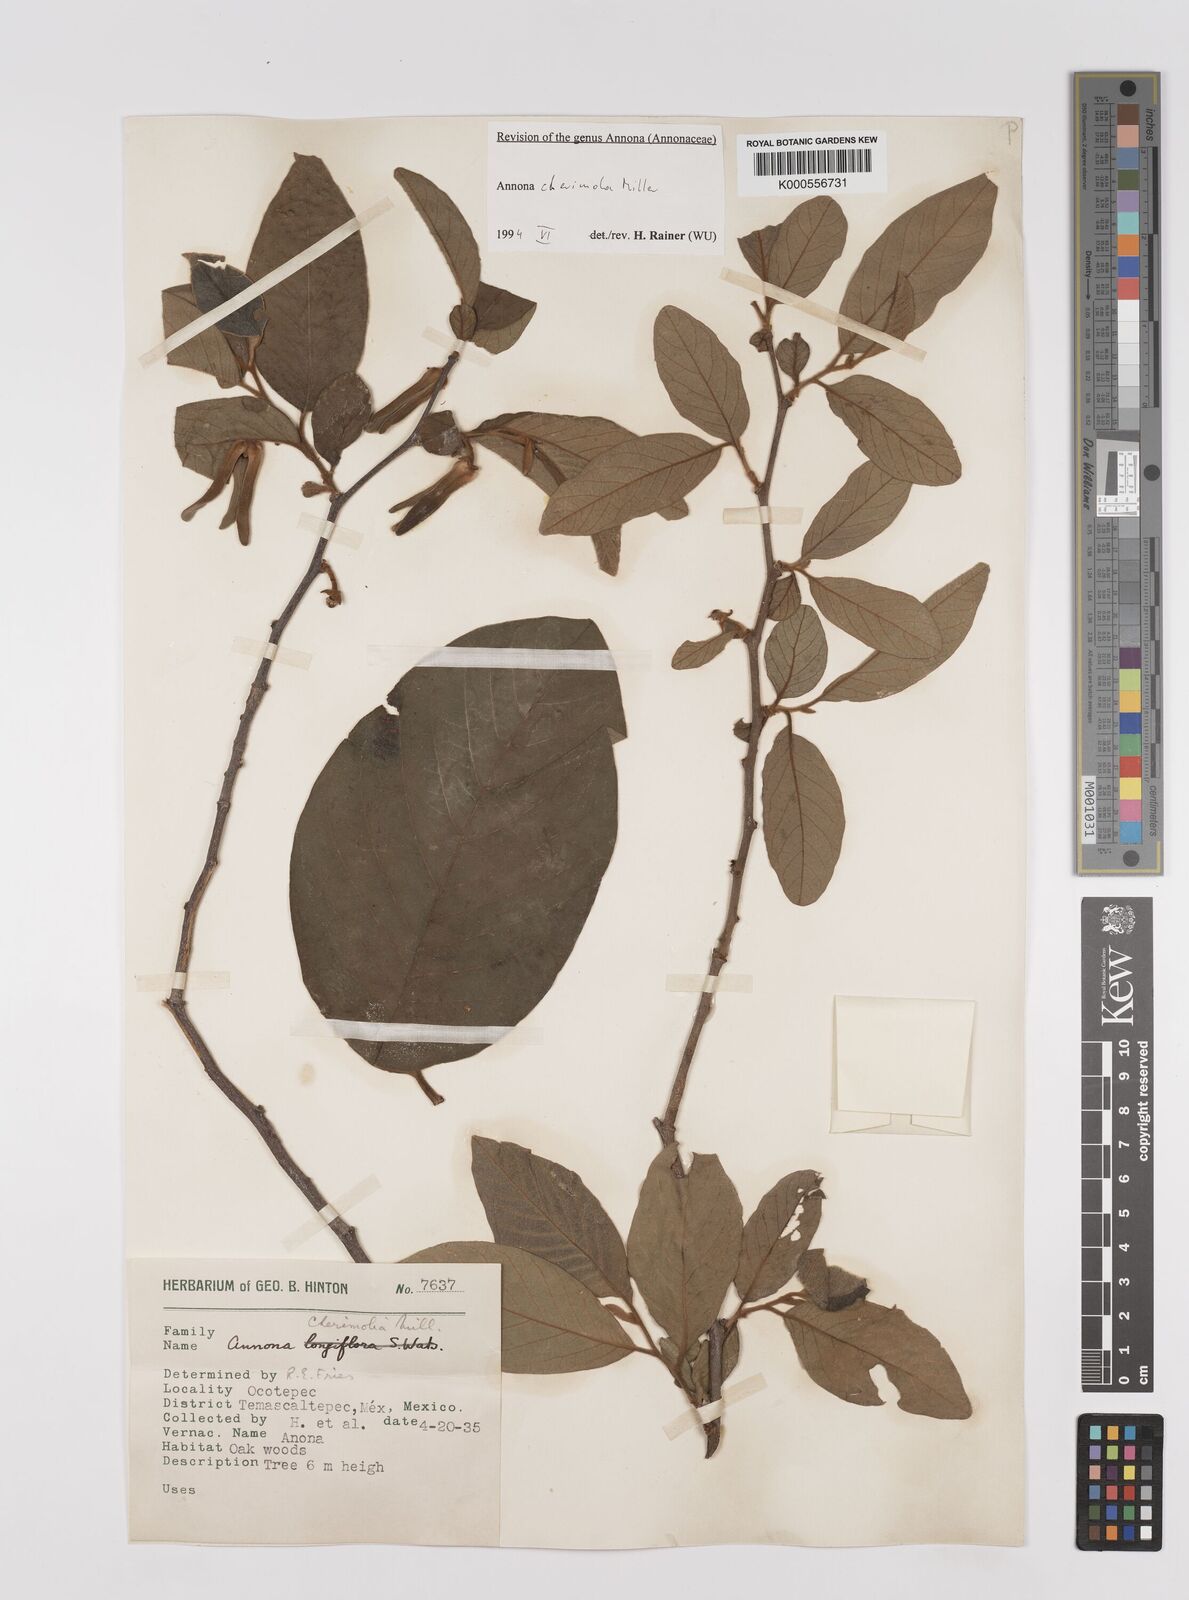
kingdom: Plantae
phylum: Tracheophyta
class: Magnoliopsida
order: Magnoliales
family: Annonaceae
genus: Annona
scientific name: Annona cherimola
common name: Cherimoya
